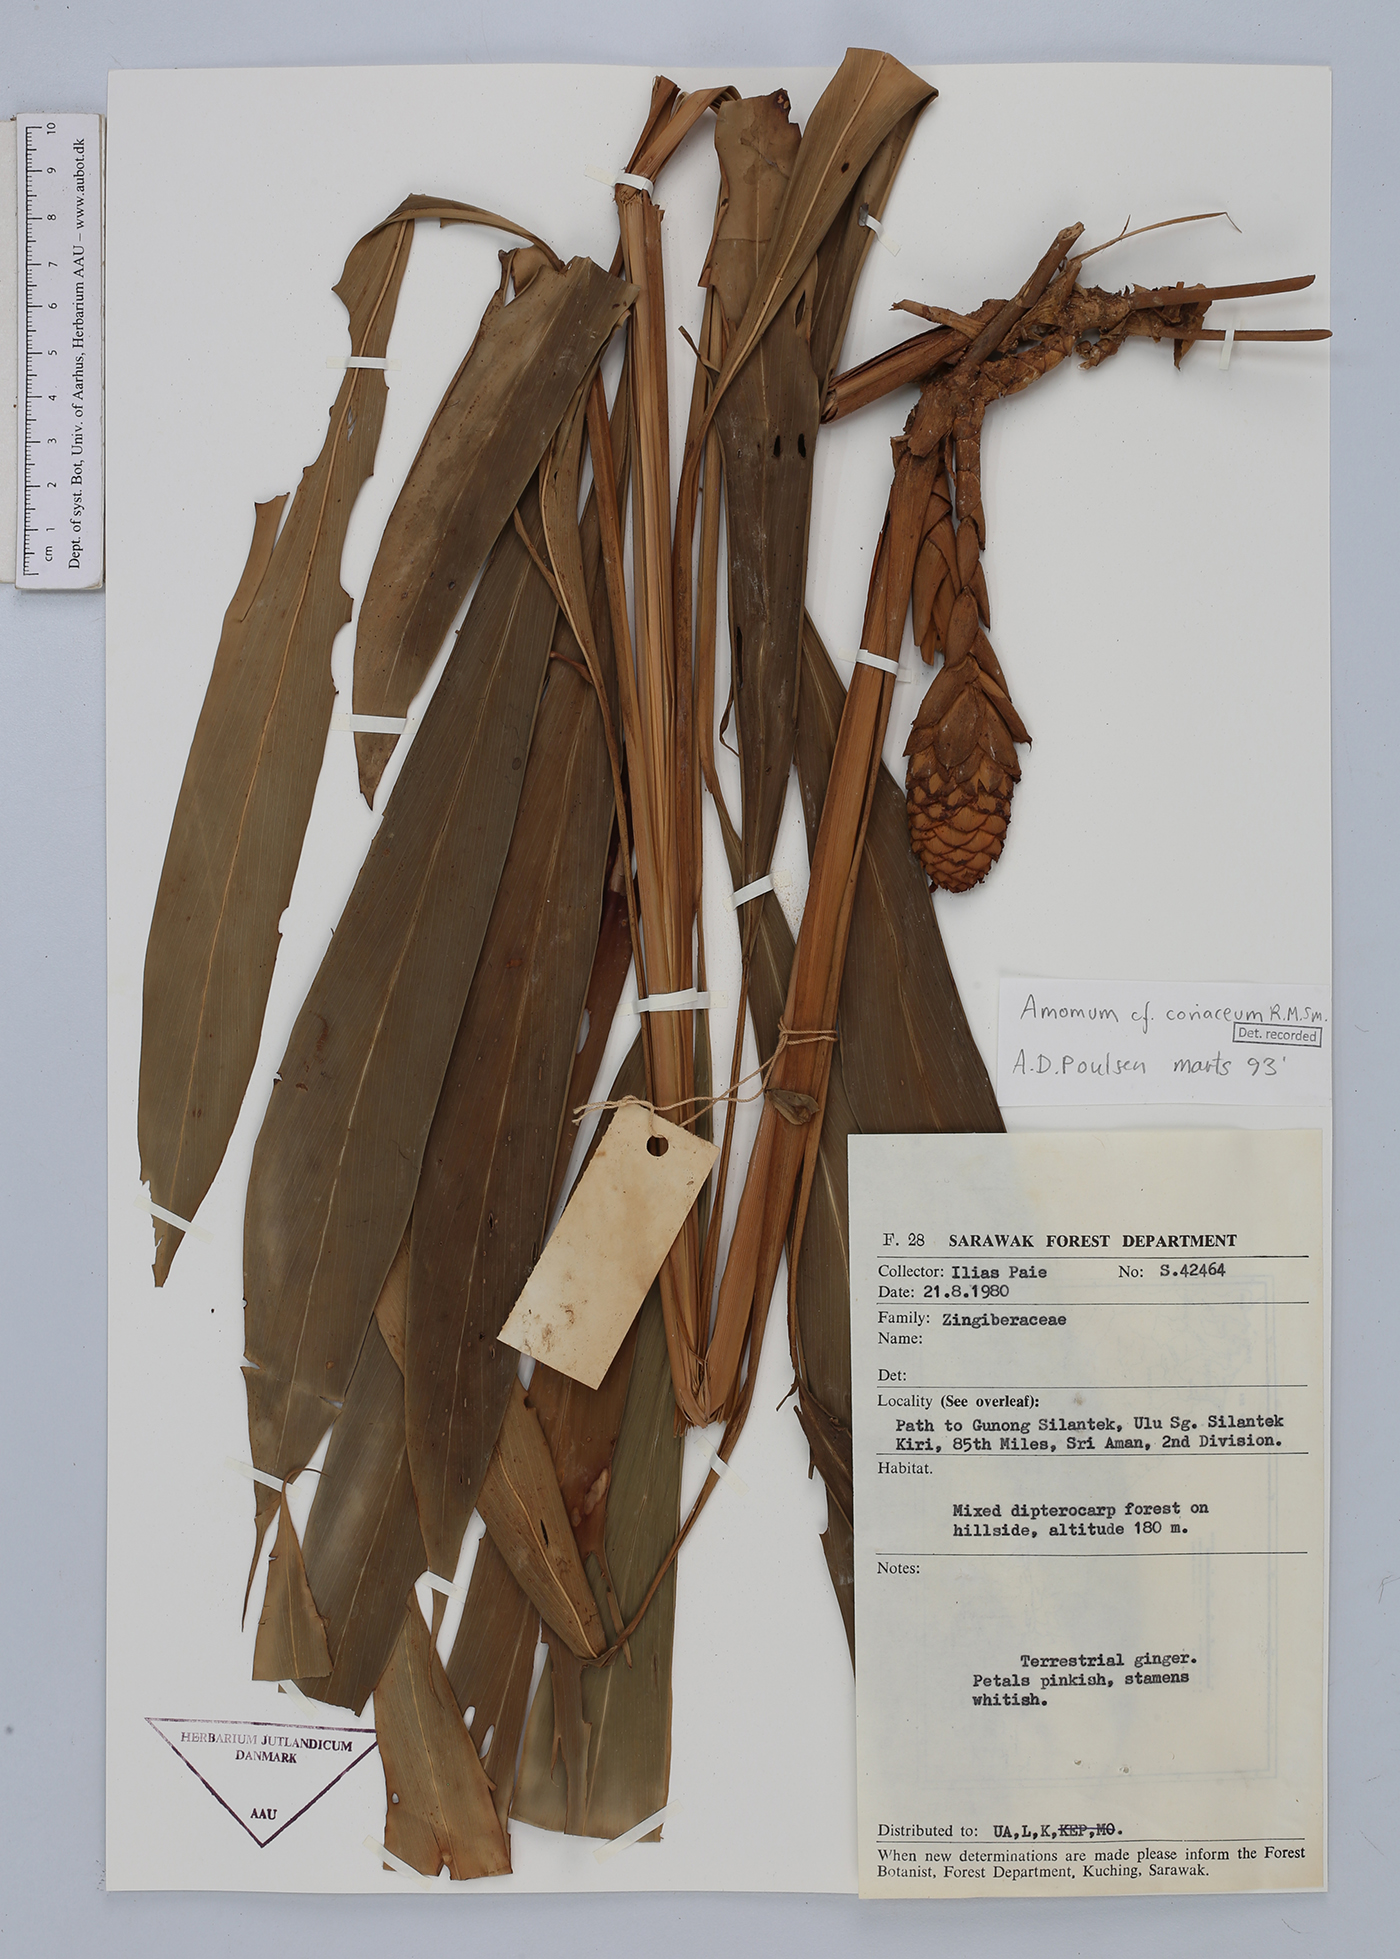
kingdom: Plantae
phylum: Tracheophyta
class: Liliopsida
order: Zingiberales
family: Zingiberaceae
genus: Conamomum
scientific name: Conamomum cylindrostachys
